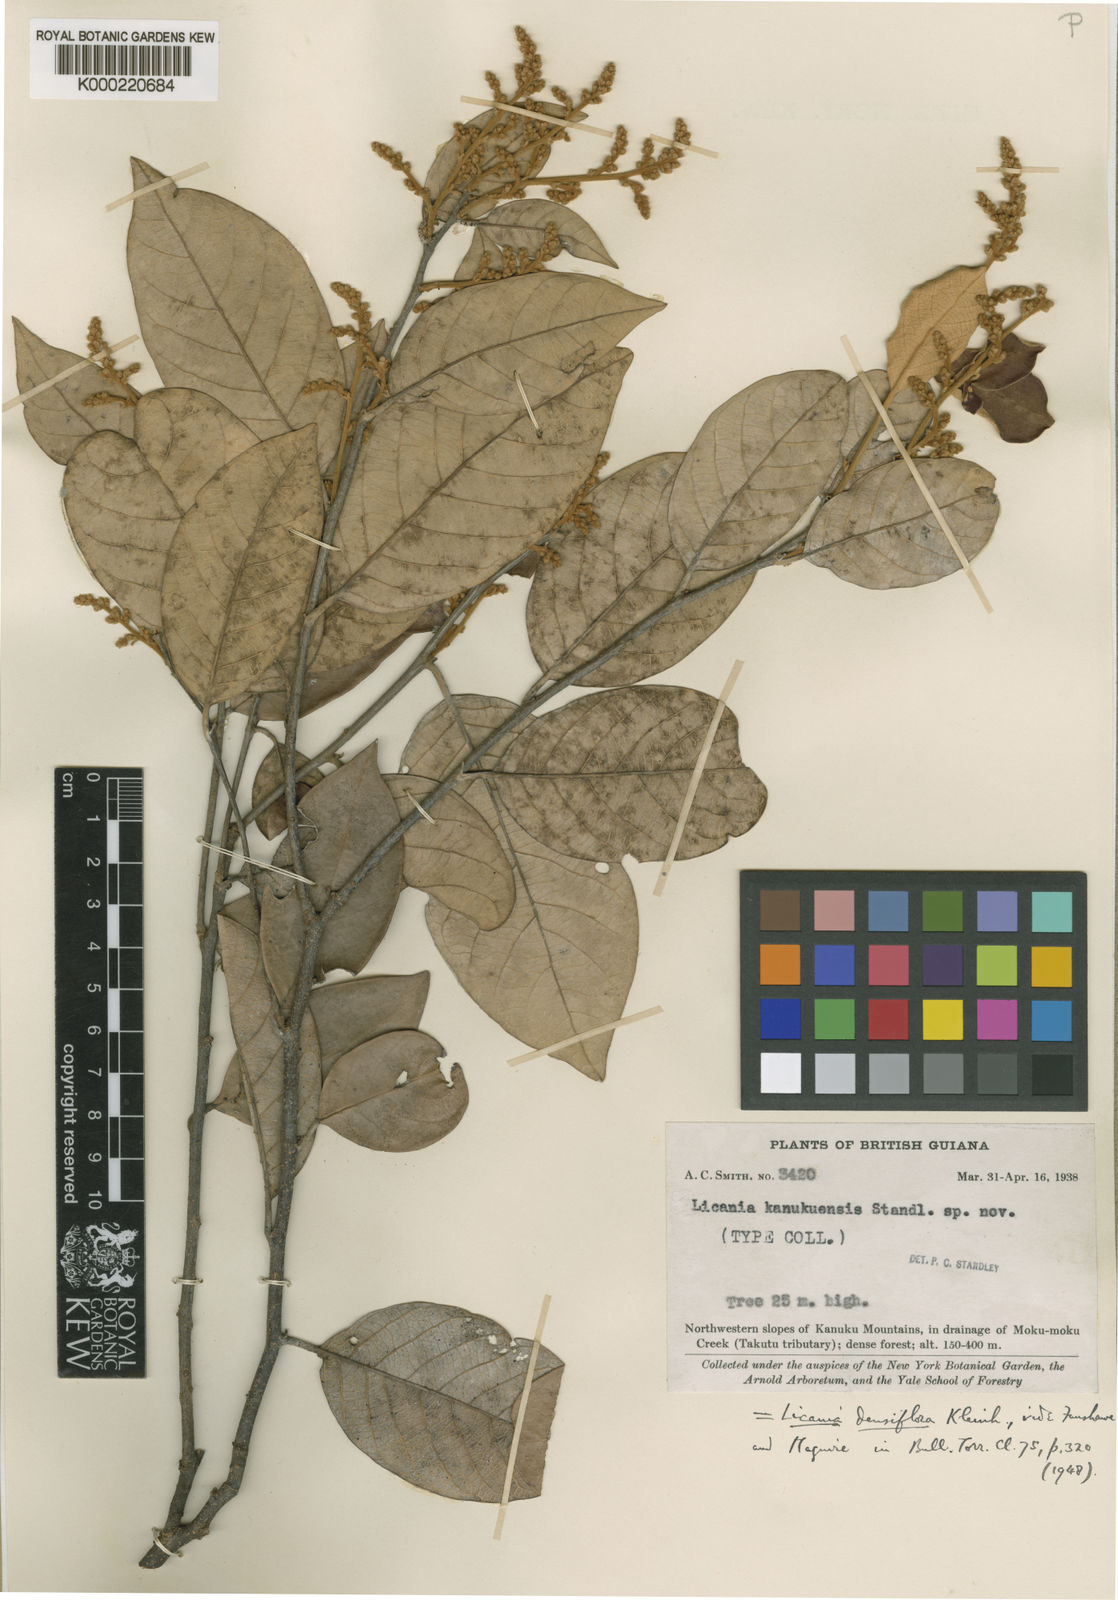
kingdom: Plantae
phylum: Tracheophyta
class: Magnoliopsida
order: Malpighiales
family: Chrysobalanaceae
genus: Licania
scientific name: Licania densiflora
